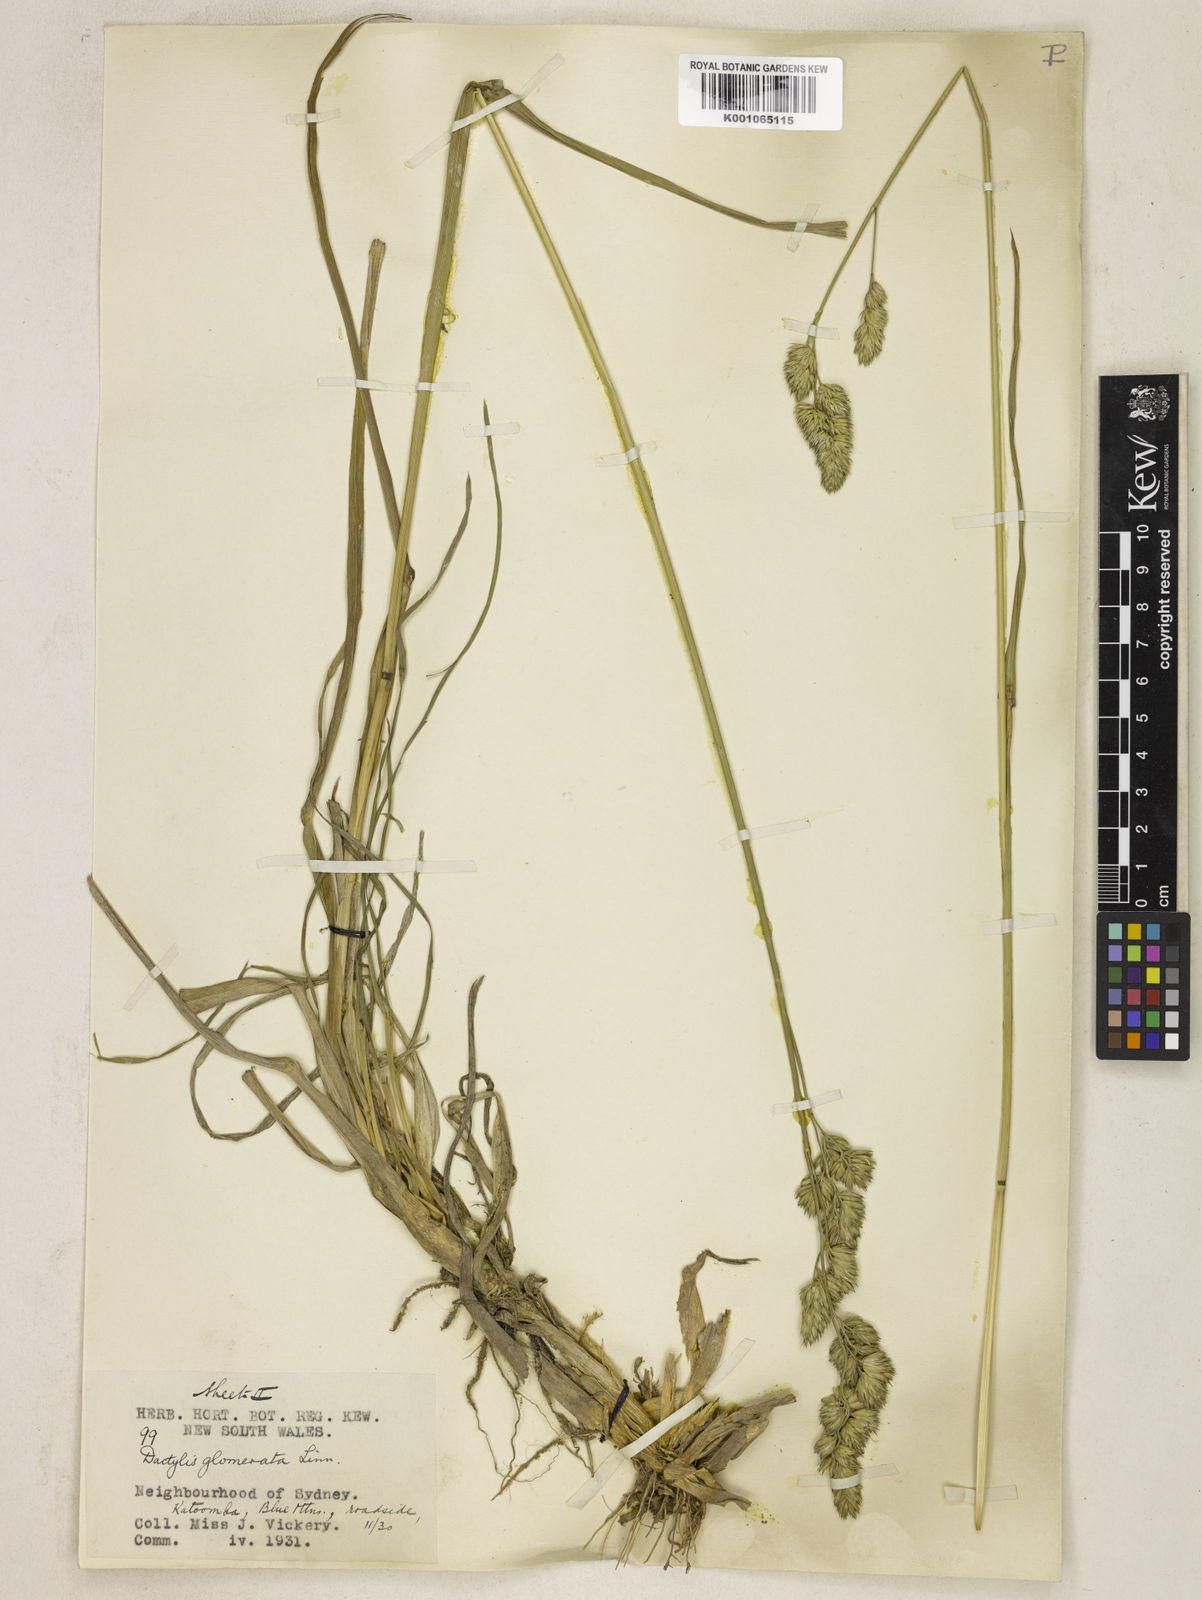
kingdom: Plantae
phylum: Tracheophyta
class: Liliopsida
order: Poales
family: Poaceae
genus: Dactylis
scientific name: Dactylis glomerata
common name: Orchardgrass
